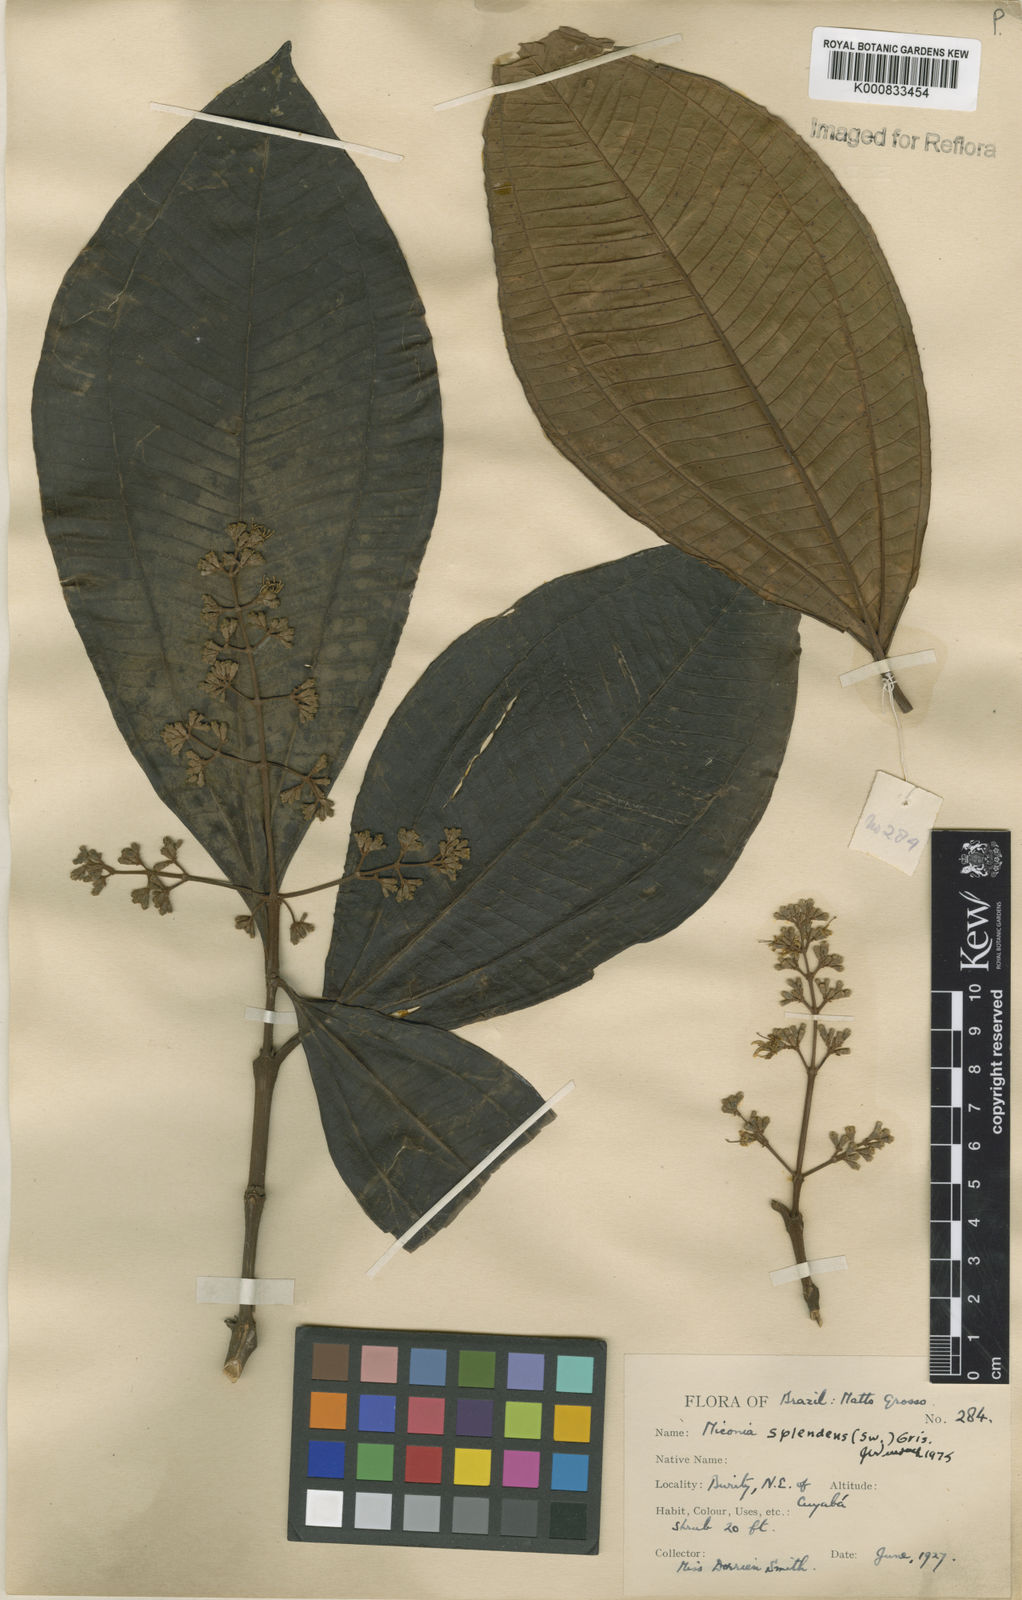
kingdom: Plantae
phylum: Tracheophyta
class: Magnoliopsida
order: Myrtales
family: Melastomataceae
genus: Miconia
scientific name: Miconia splendens
